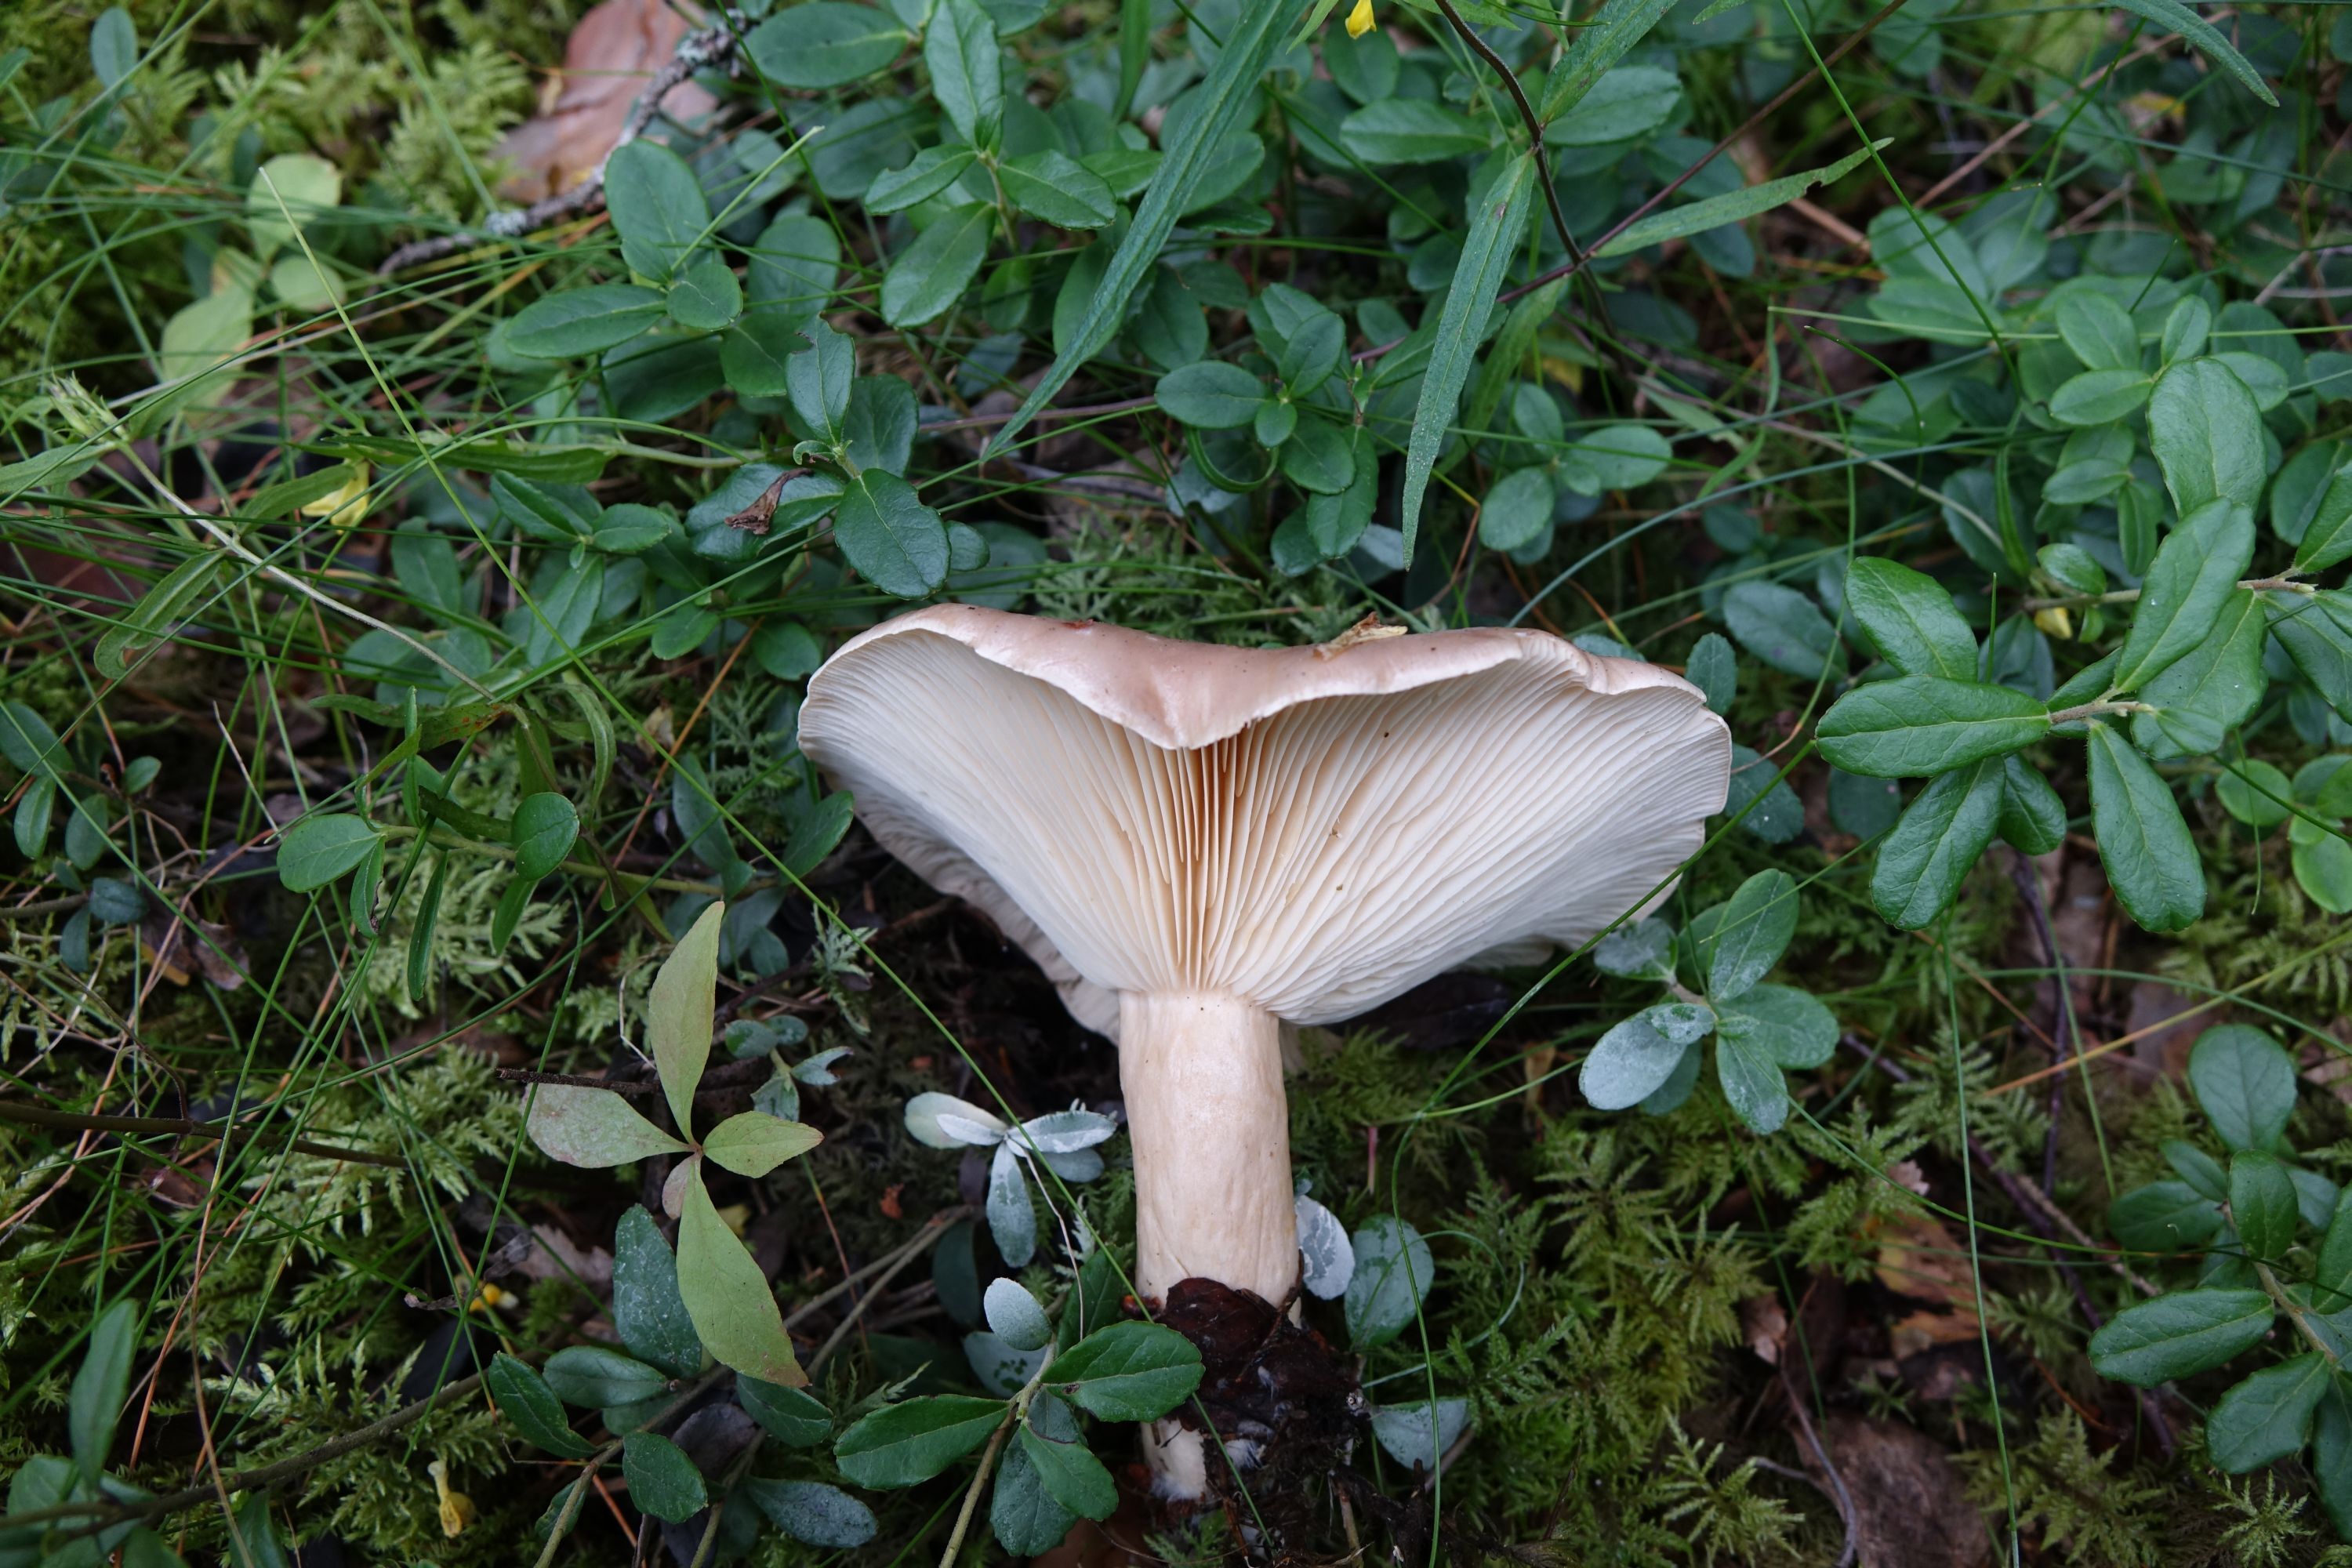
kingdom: Fungi
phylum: Basidiomycota
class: Agaricomycetes
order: Russulales
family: Russulaceae
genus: Lactarius
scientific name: Lactarius utilis
